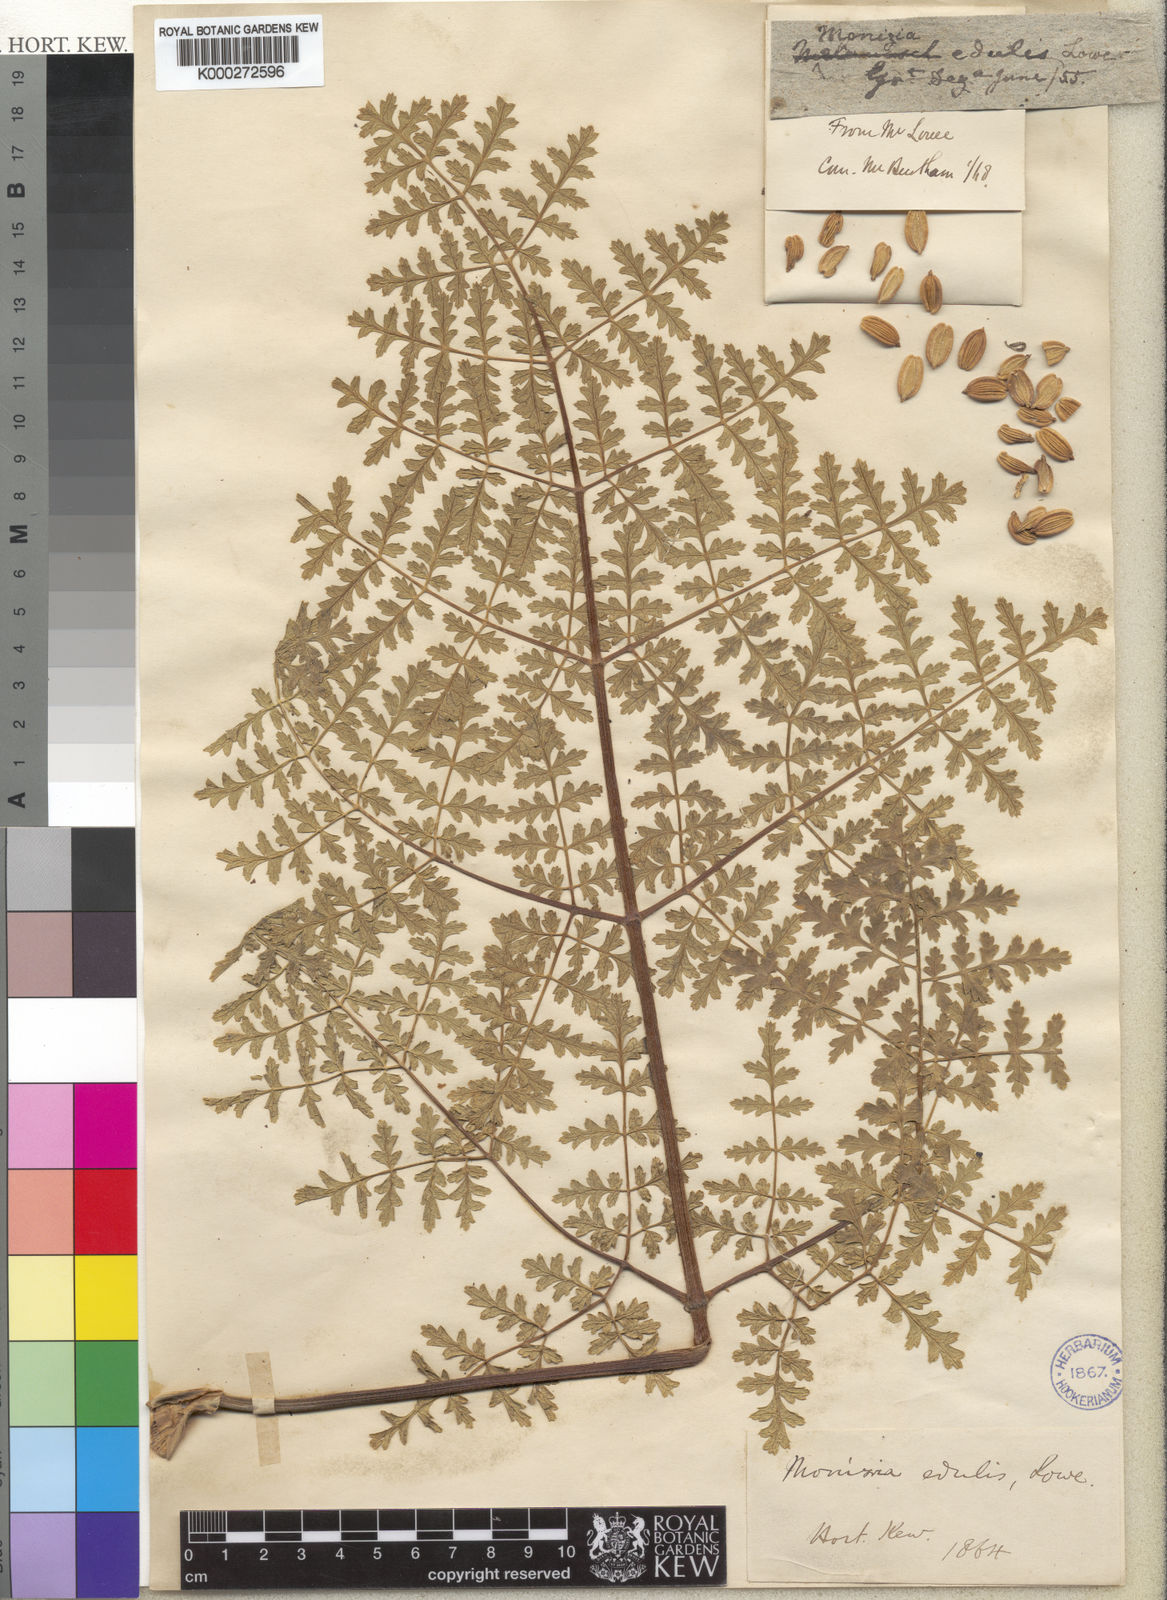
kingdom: Plantae
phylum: Tracheophyta
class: Magnoliopsida
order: Apiales
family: Apiaceae
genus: Daucus
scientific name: Daucus edulis
